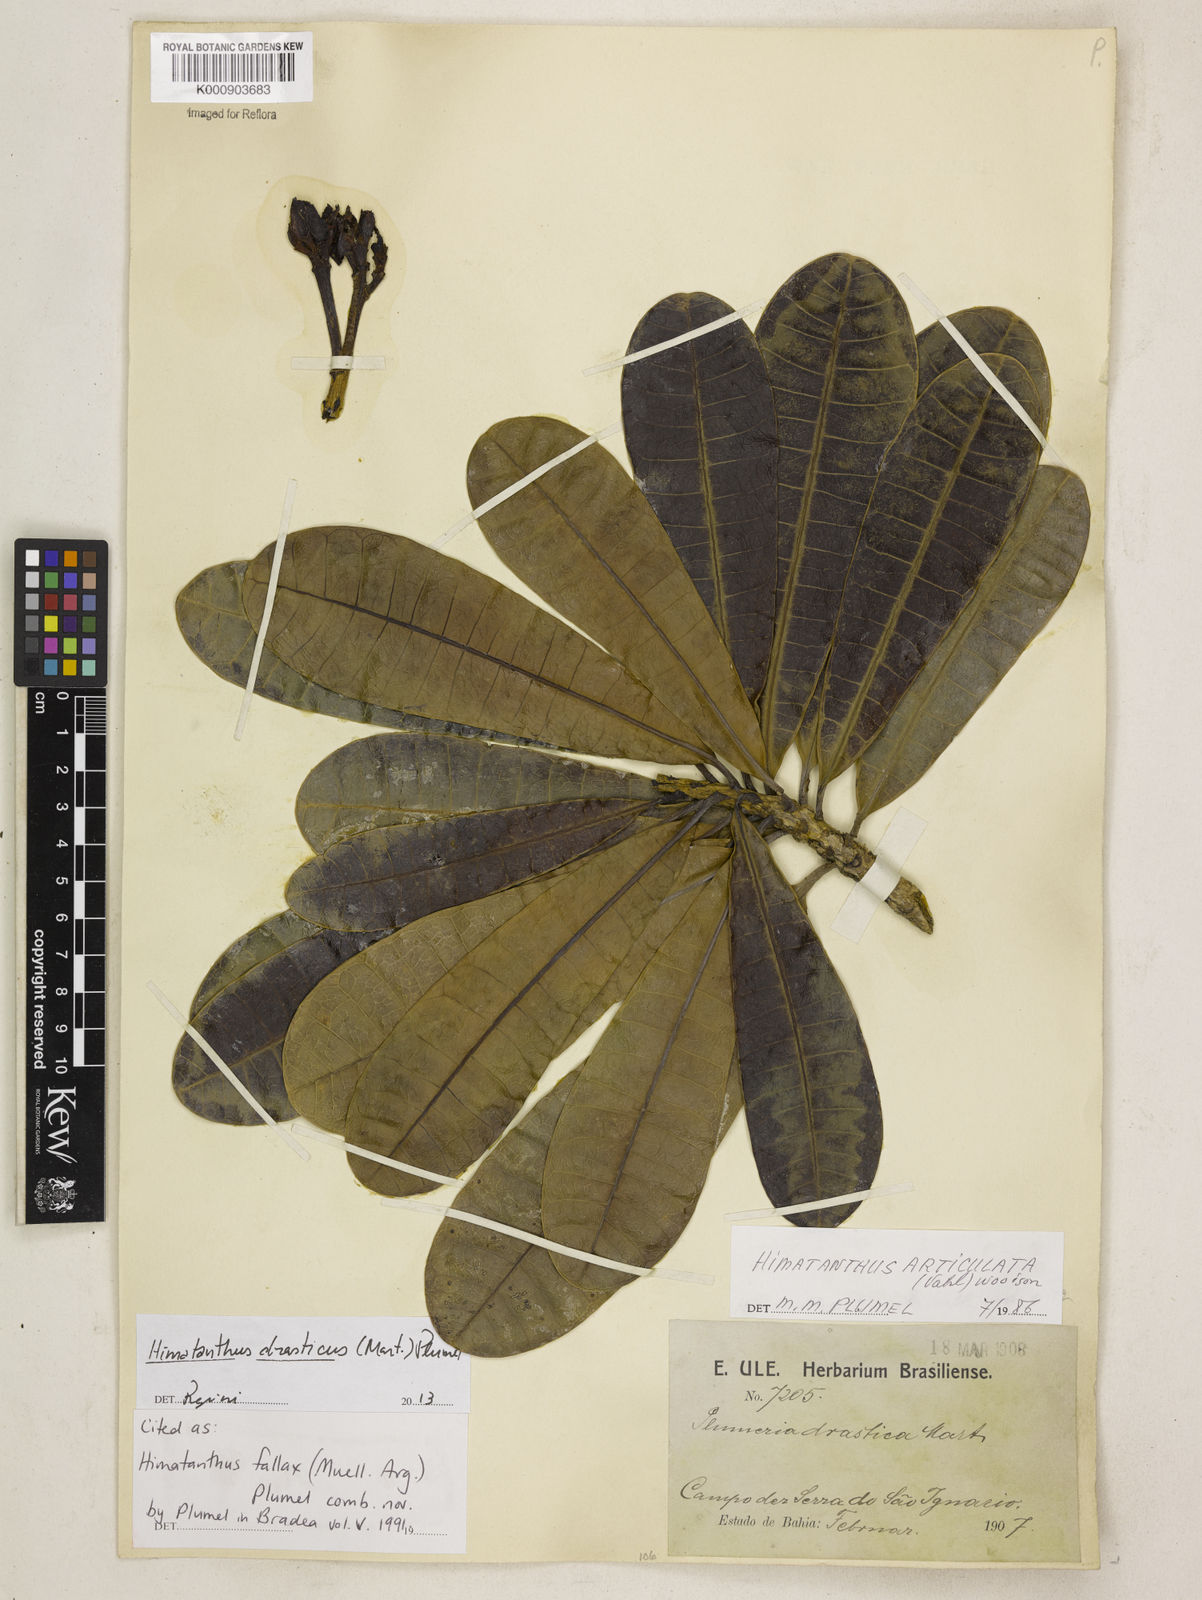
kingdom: Plantae
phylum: Tracheophyta
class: Magnoliopsida
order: Gentianales
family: Apocynaceae
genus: Himatanthus
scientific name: Himatanthus
